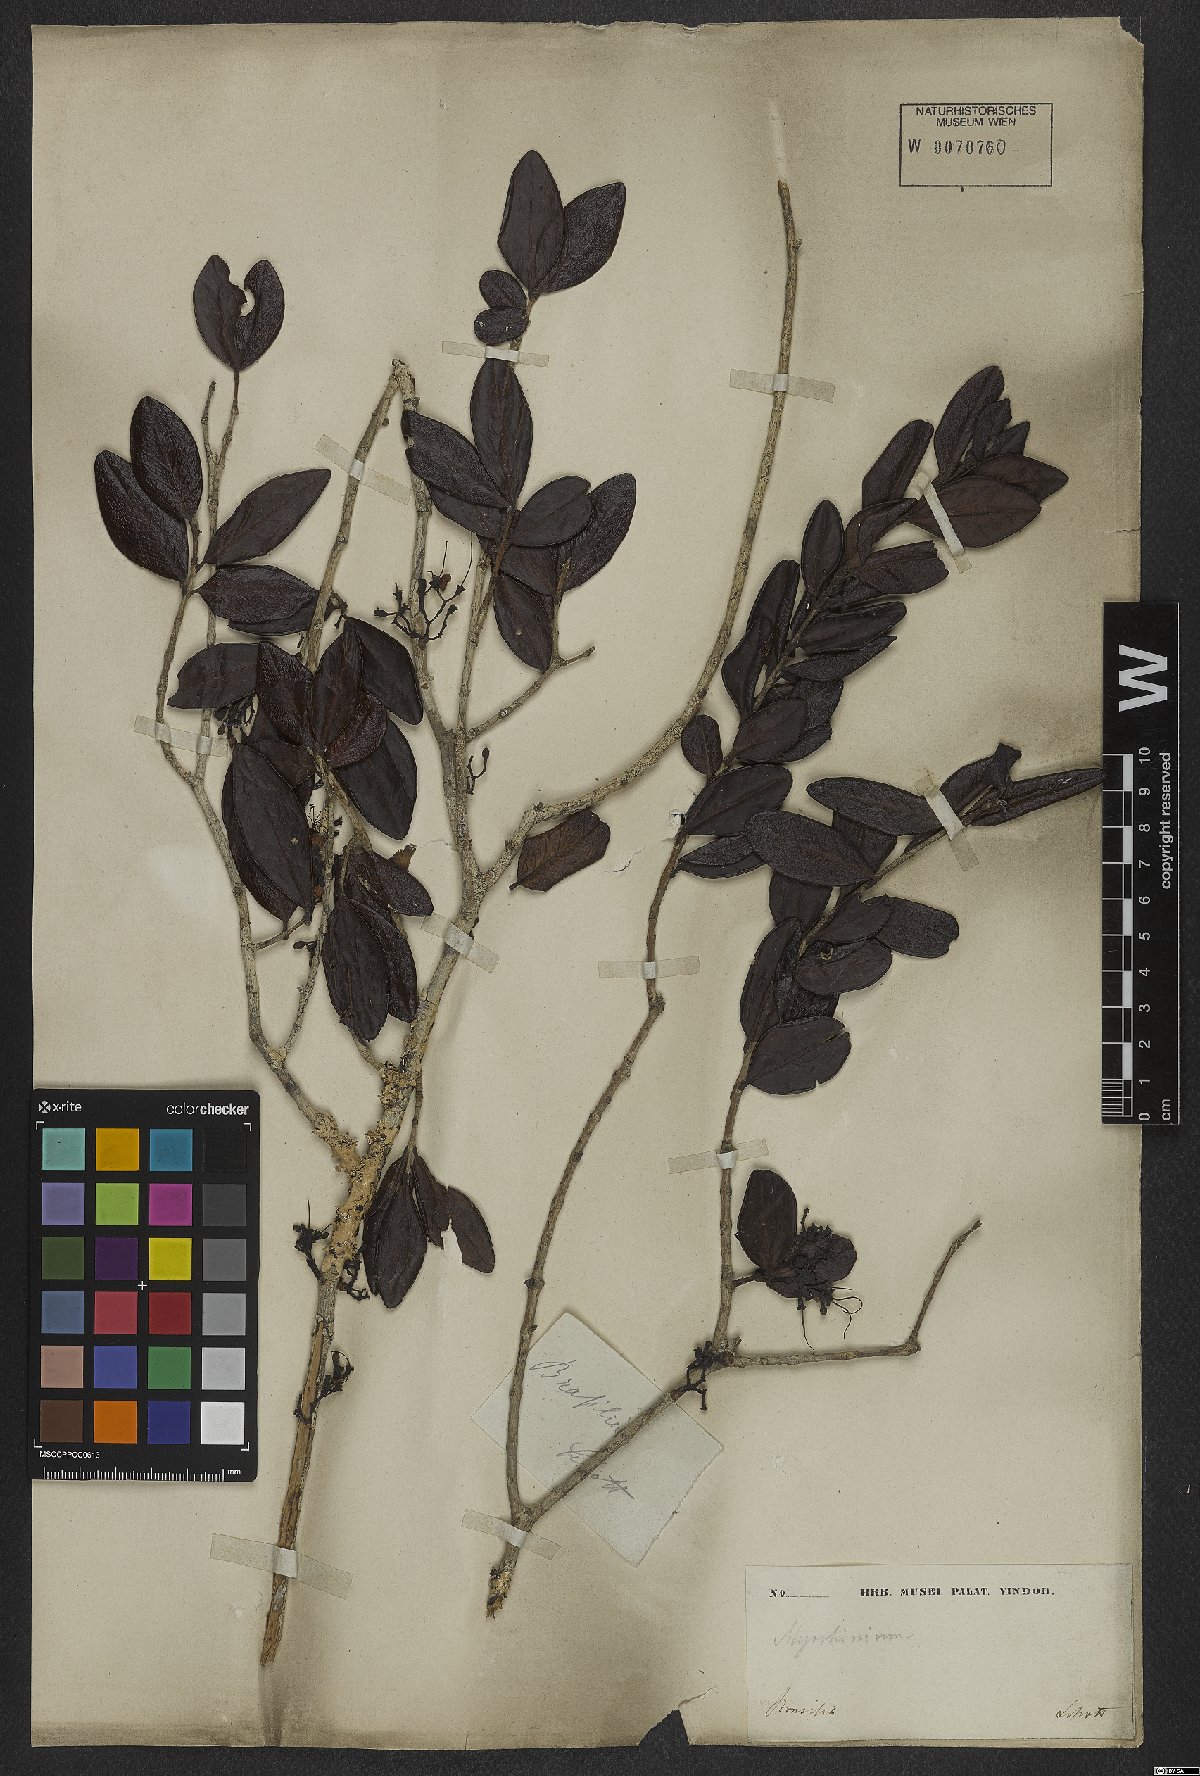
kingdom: Plantae
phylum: Tracheophyta
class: Magnoliopsida
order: Myrtales
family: Myrtaceae
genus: Myrrhinium
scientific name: Myrrhinium atropurpureum
